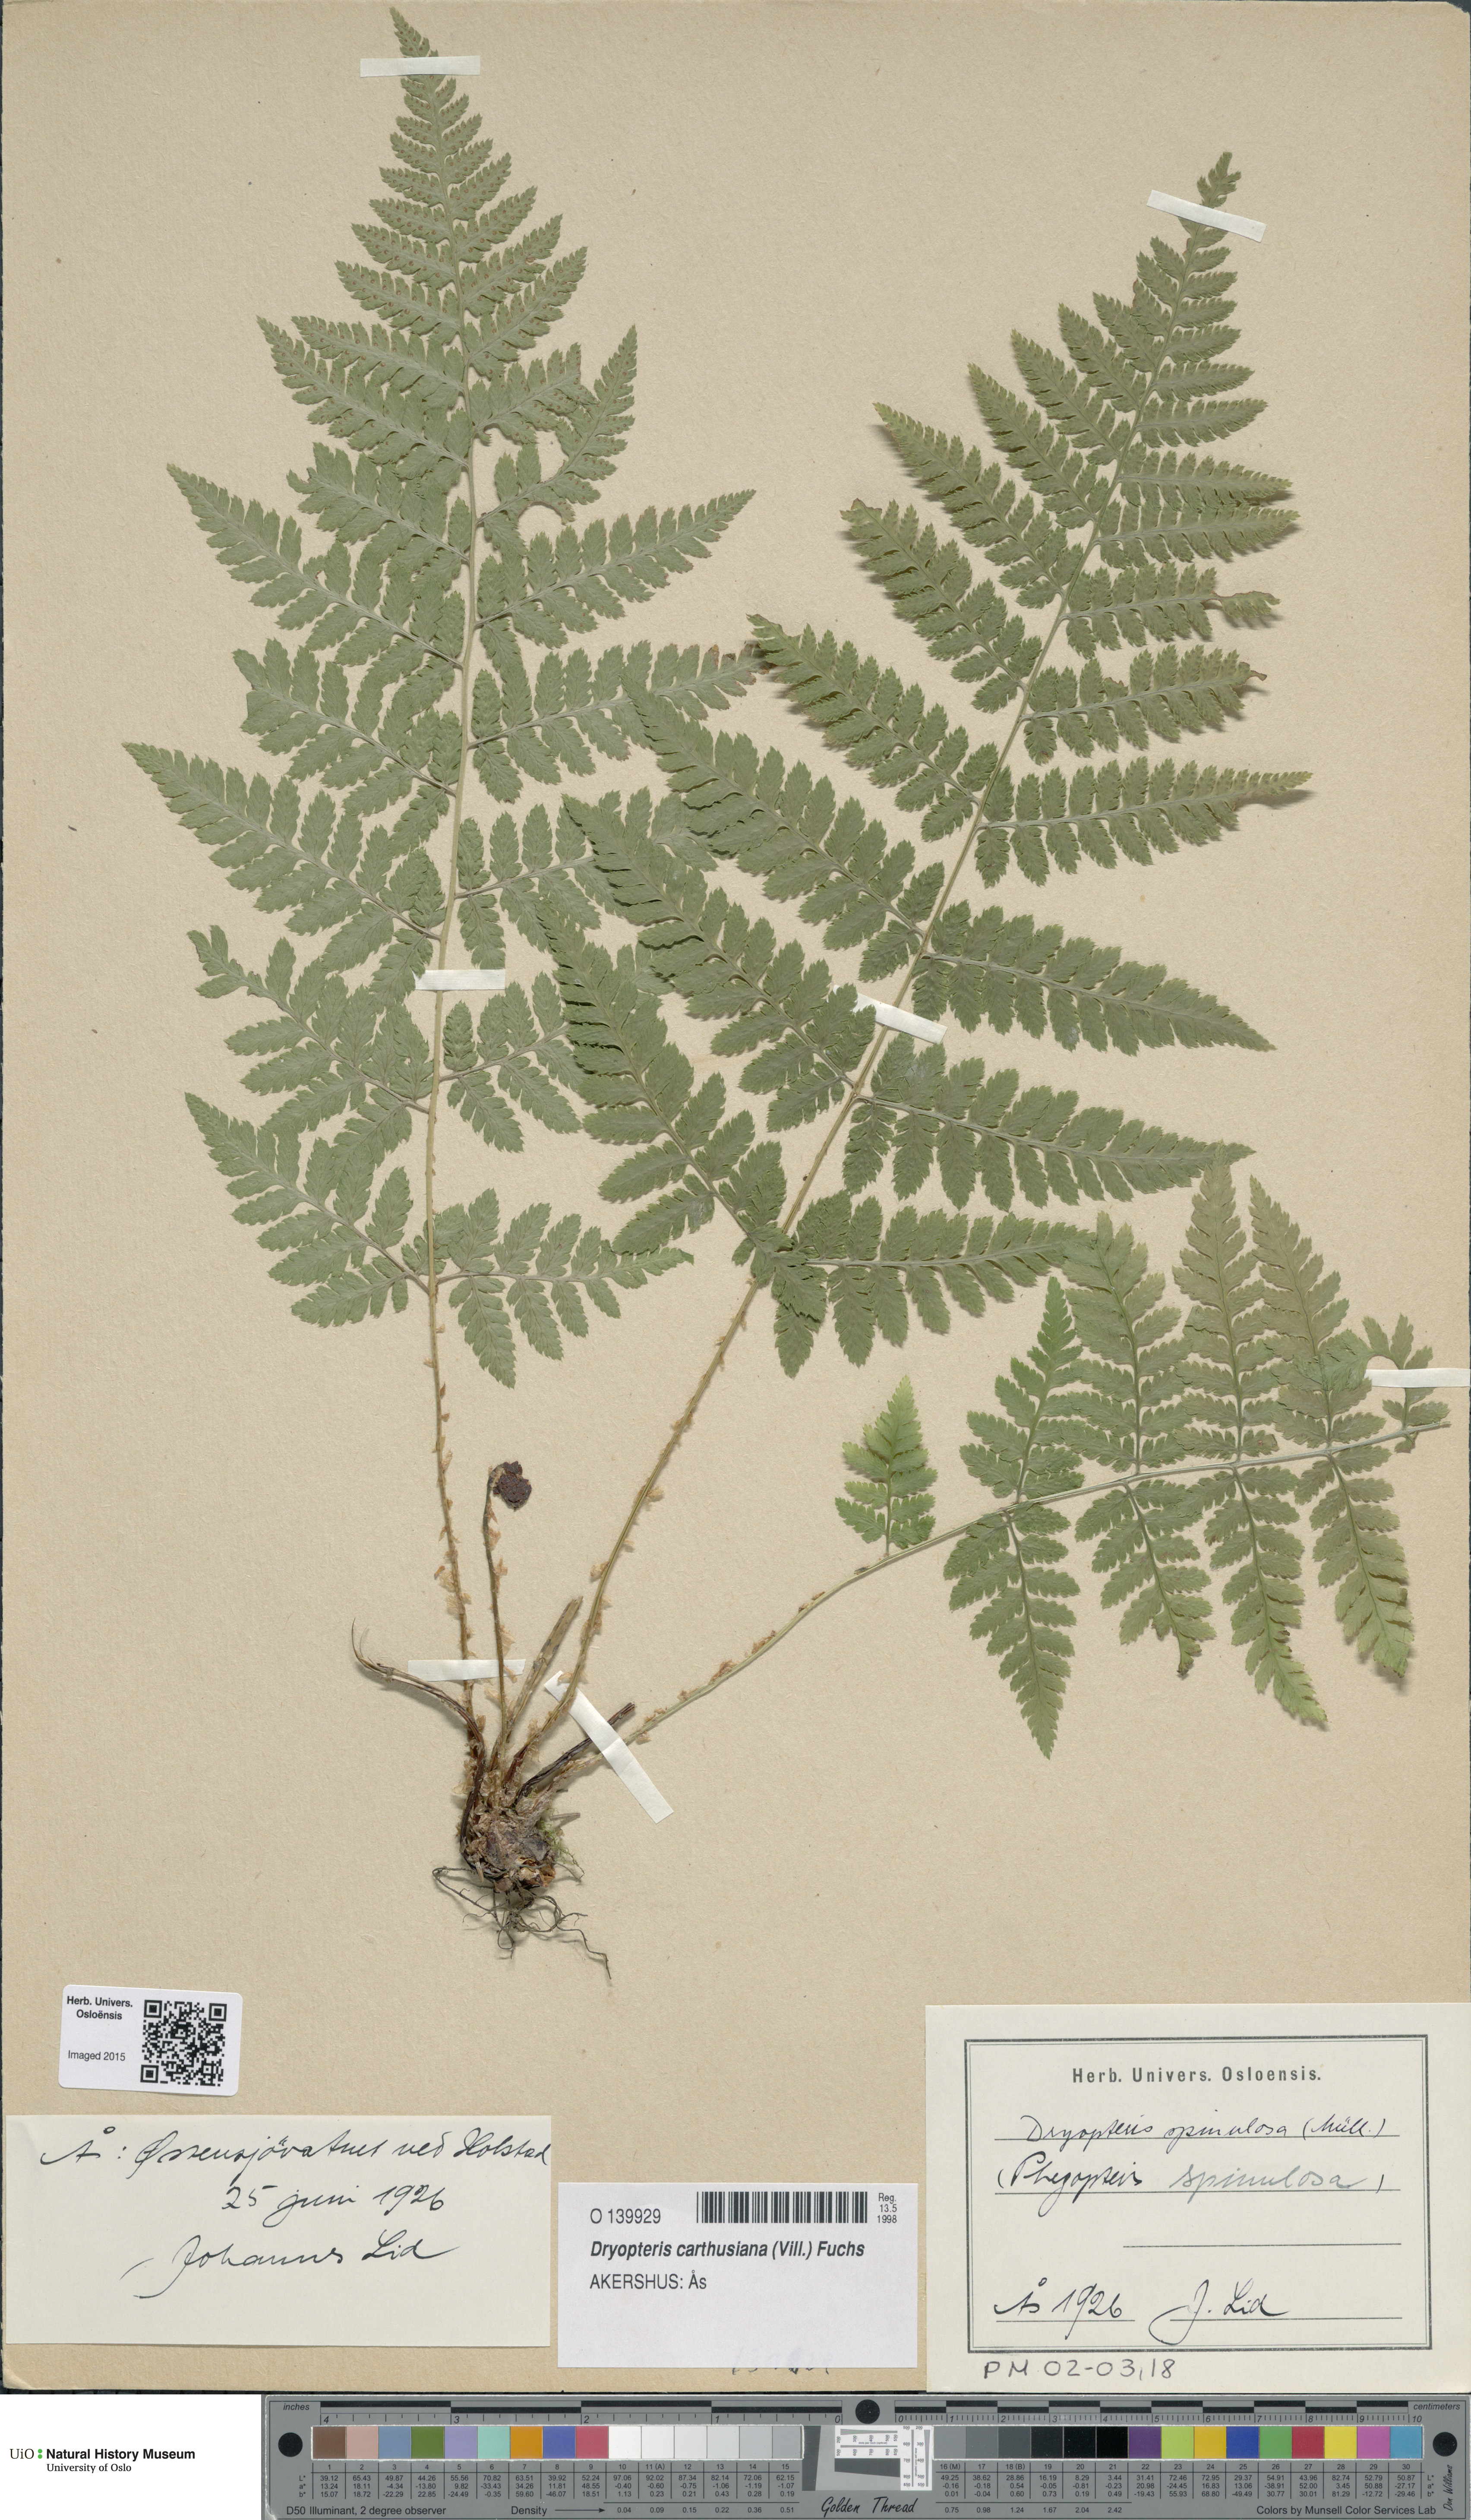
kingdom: Plantae
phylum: Tracheophyta
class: Polypodiopsida
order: Polypodiales
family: Dryopteridaceae
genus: Dryopteris
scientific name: Dryopteris carthusiana
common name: Narrow buckler-fern
